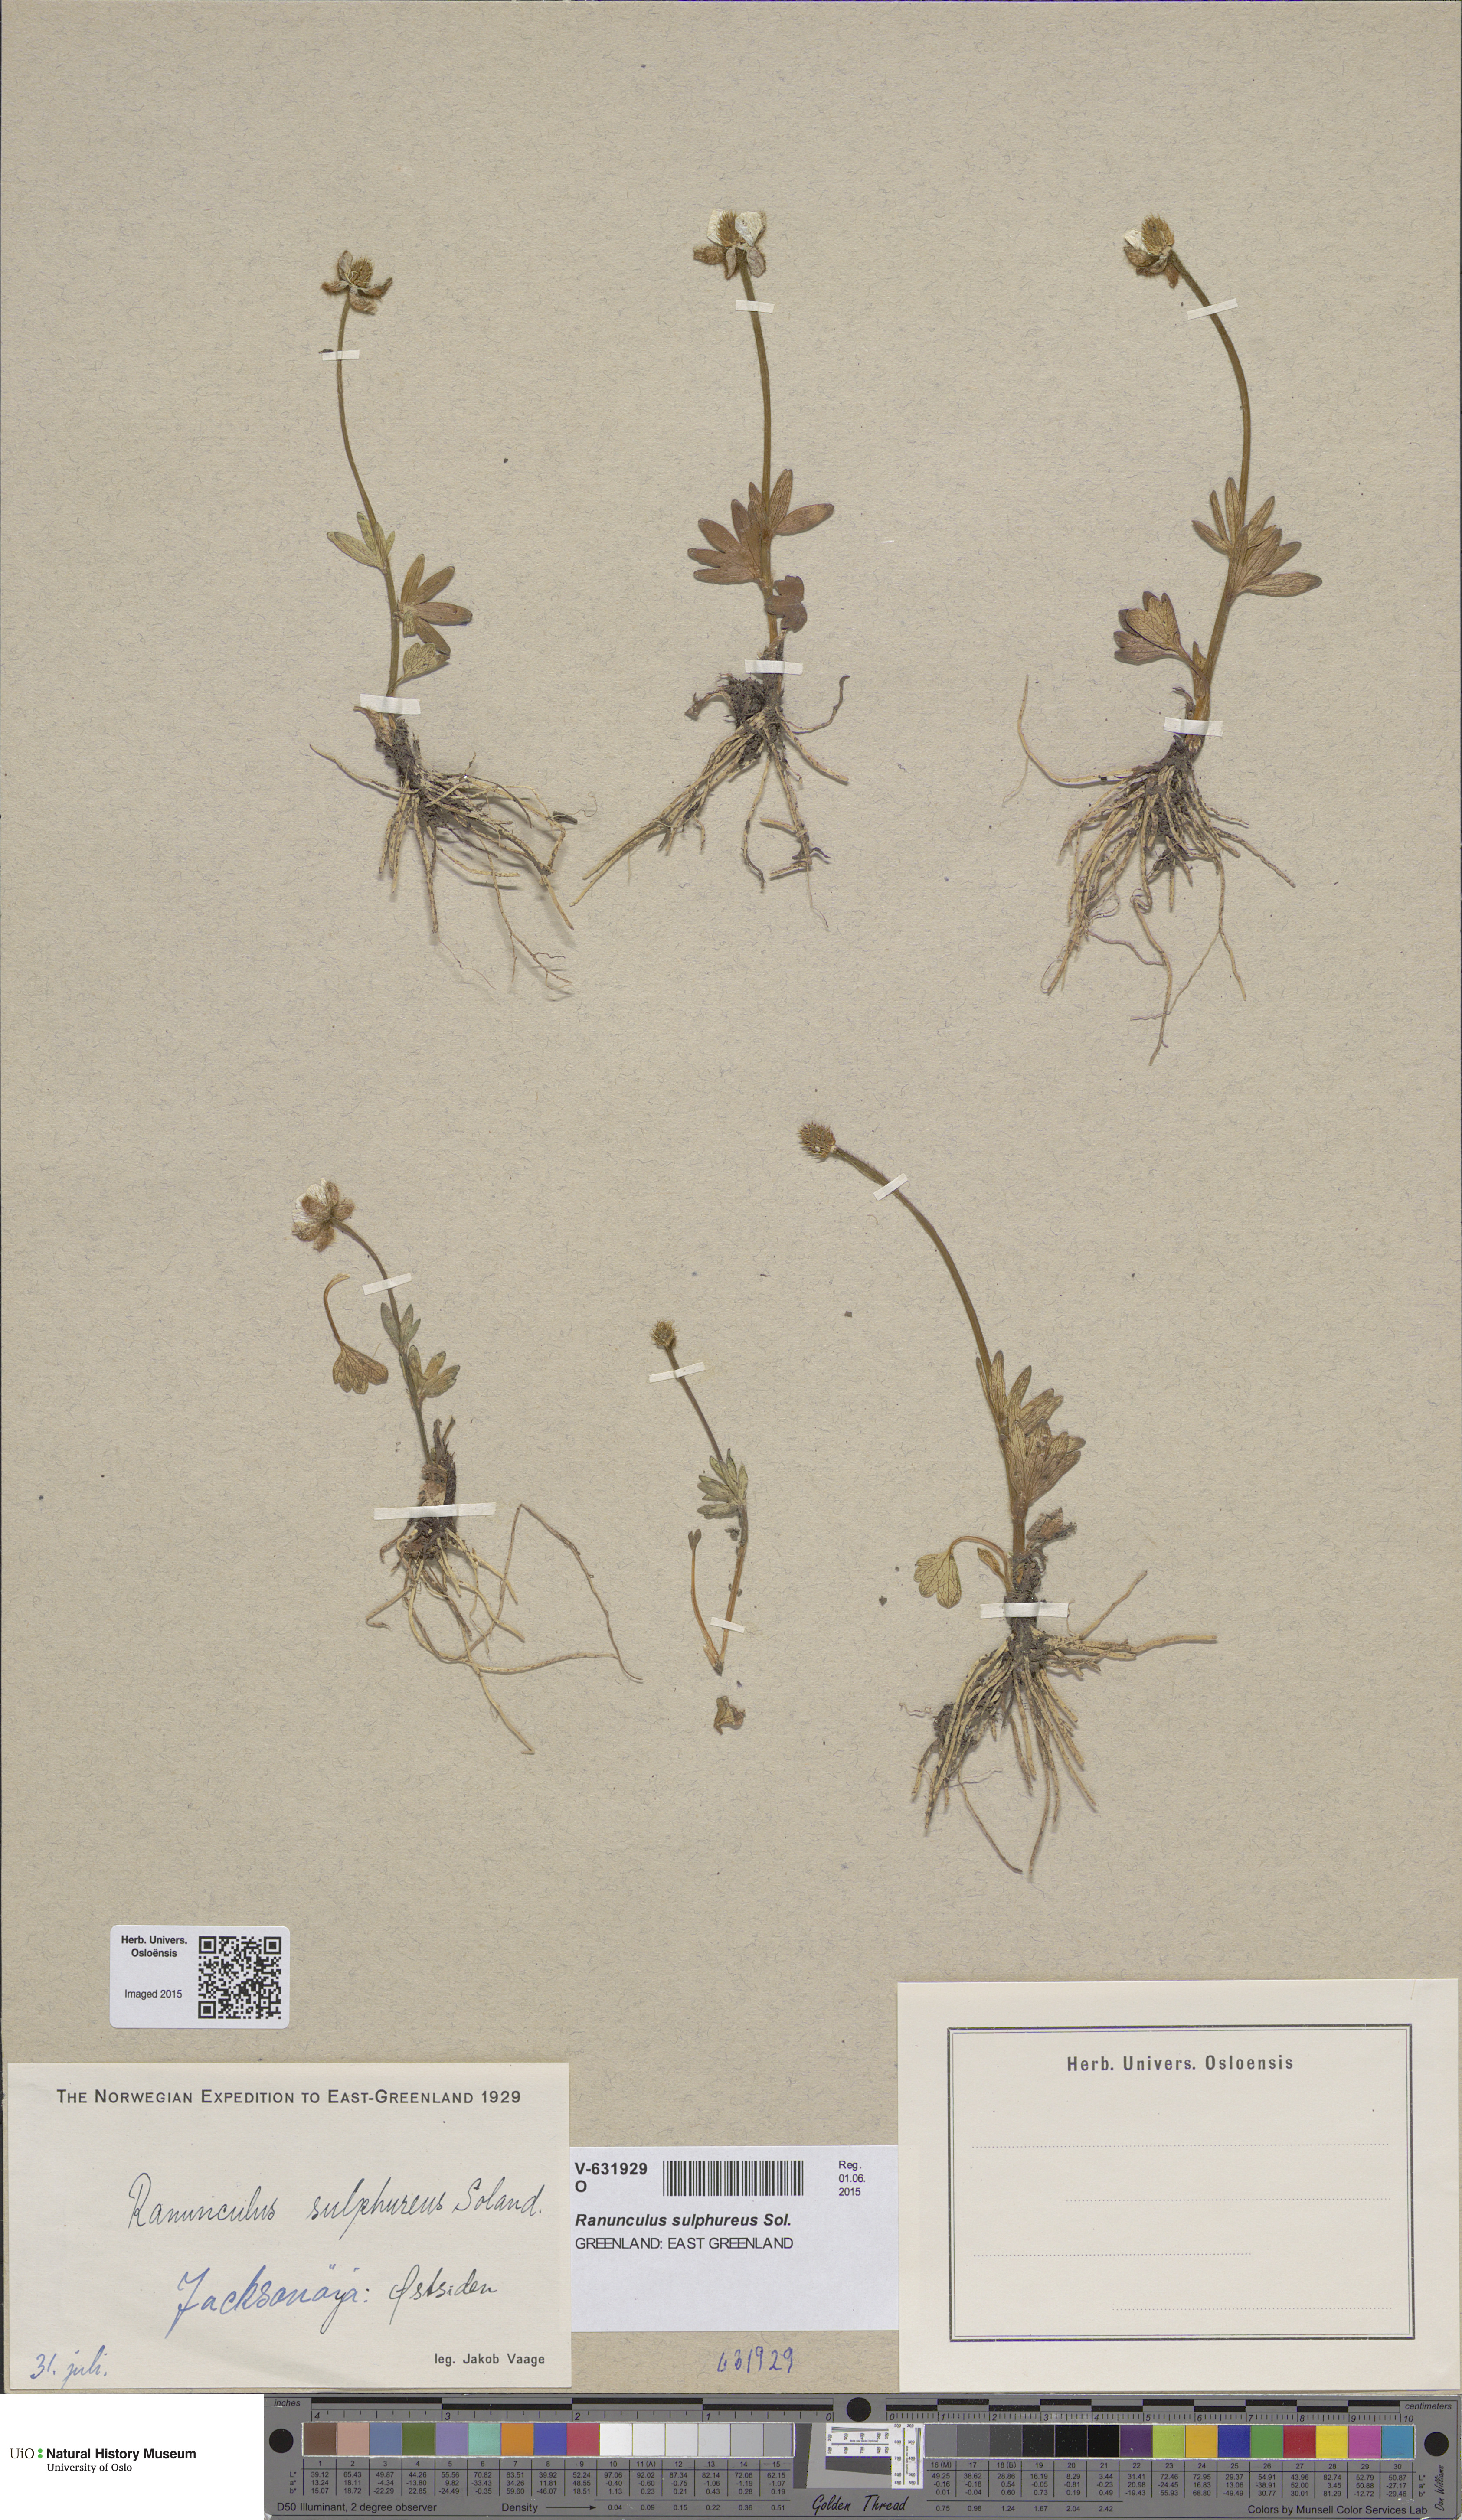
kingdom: Plantae
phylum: Tracheophyta
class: Magnoliopsida
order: Ranunculales
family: Ranunculaceae
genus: Ranunculus
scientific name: Ranunculus sulphureus
